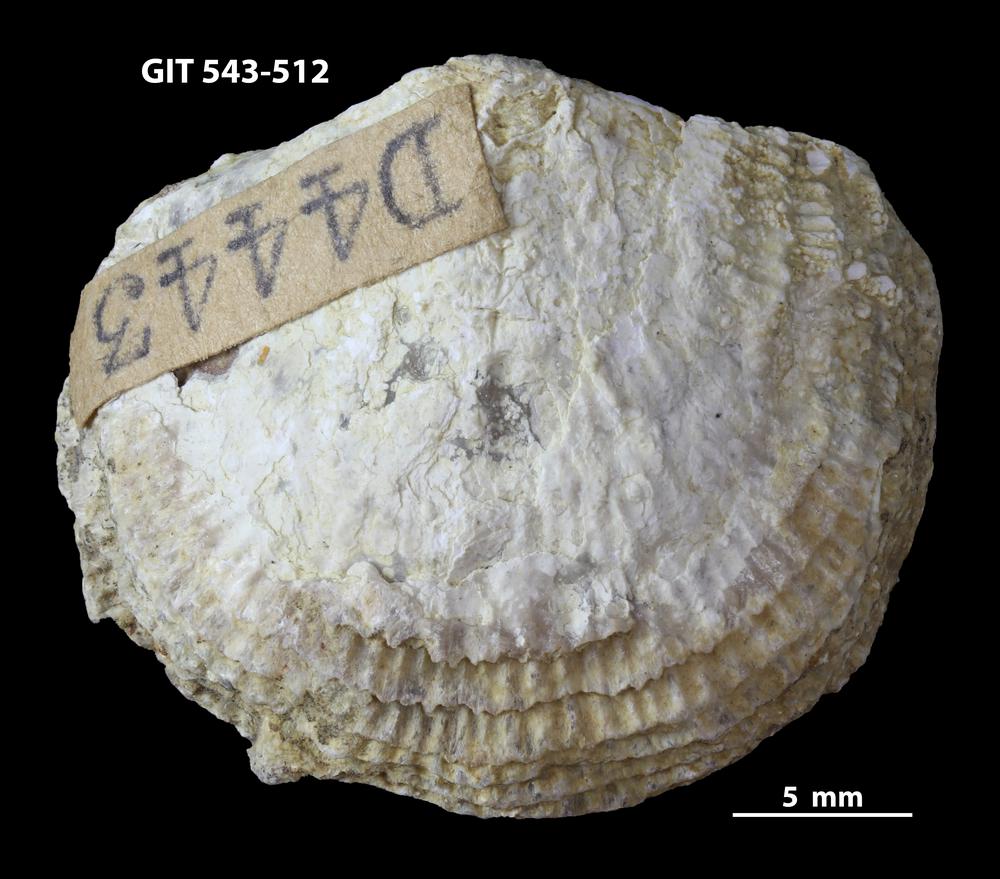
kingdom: Animalia
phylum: Brachiopoda
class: Rhynchonellata
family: Clitambonitidae
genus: Clitambonites
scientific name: Clitambonites
